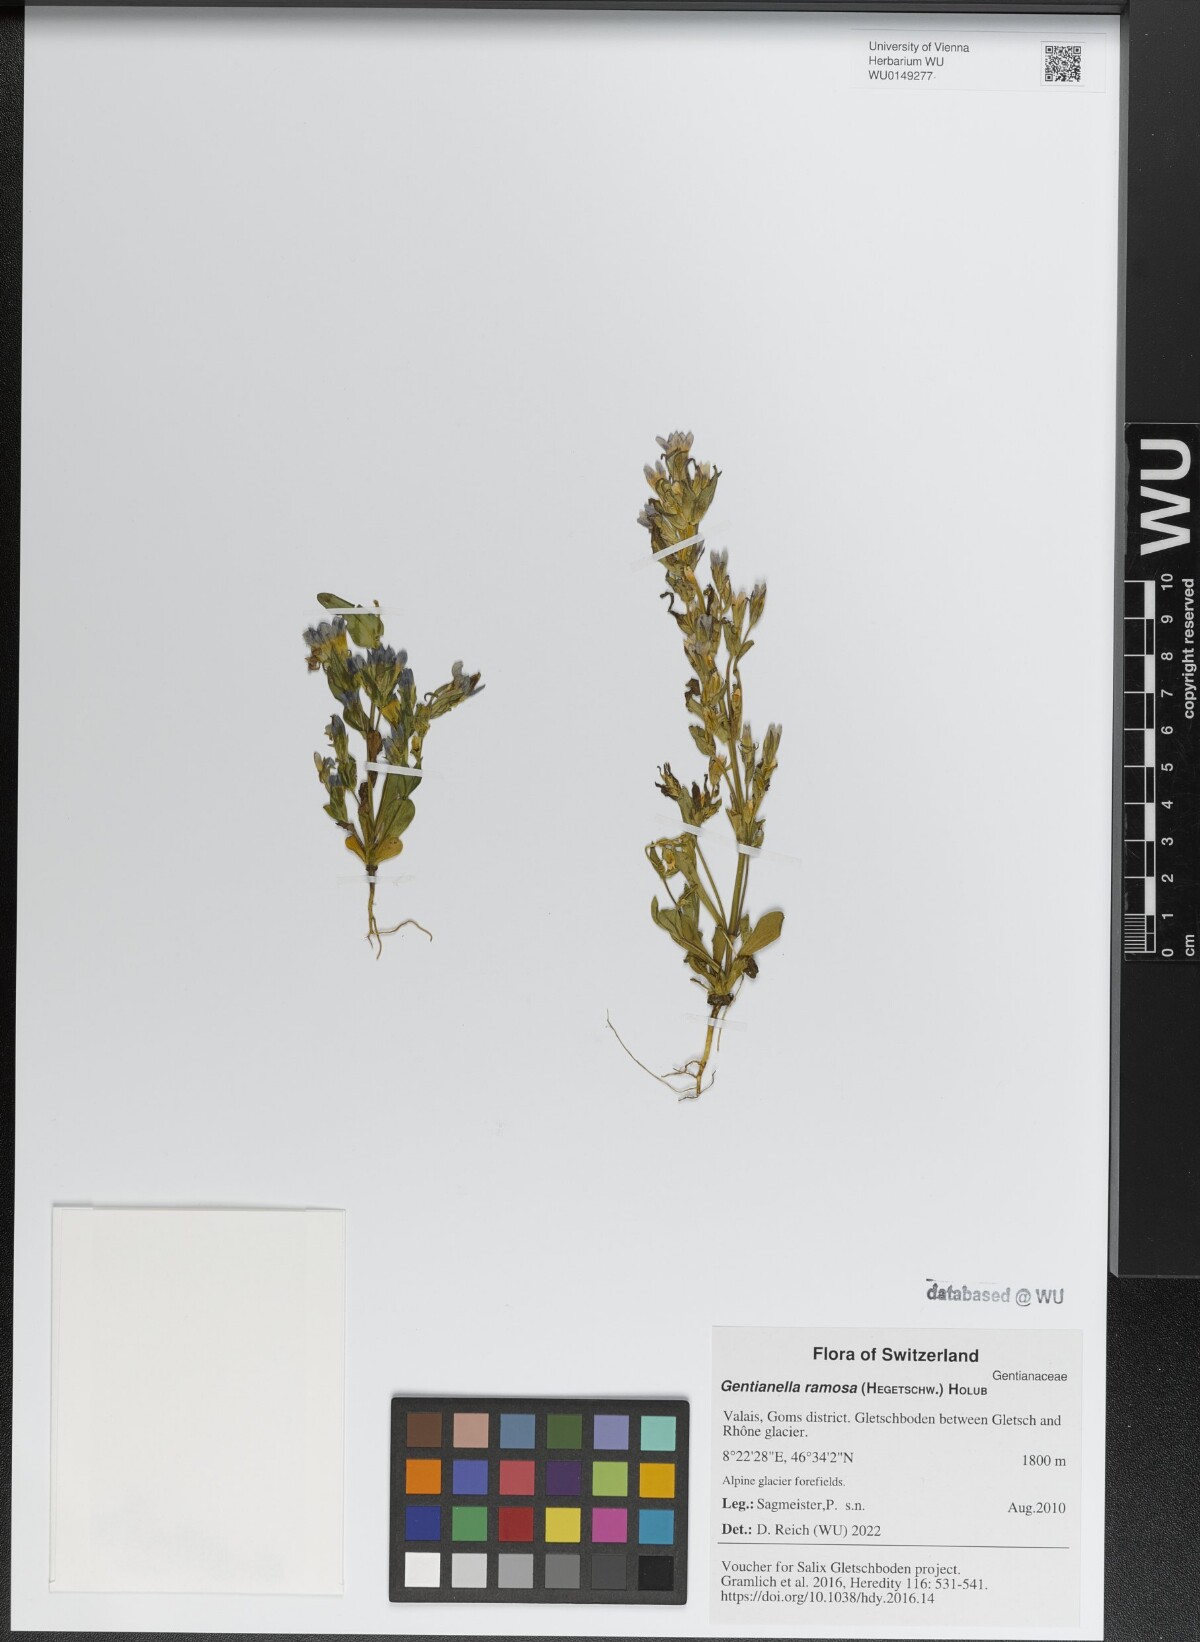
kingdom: Plantae
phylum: Tracheophyta
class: Magnoliopsida
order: Gentianales
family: Gentianaceae
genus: Gentianella
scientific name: Gentianella ramosa
